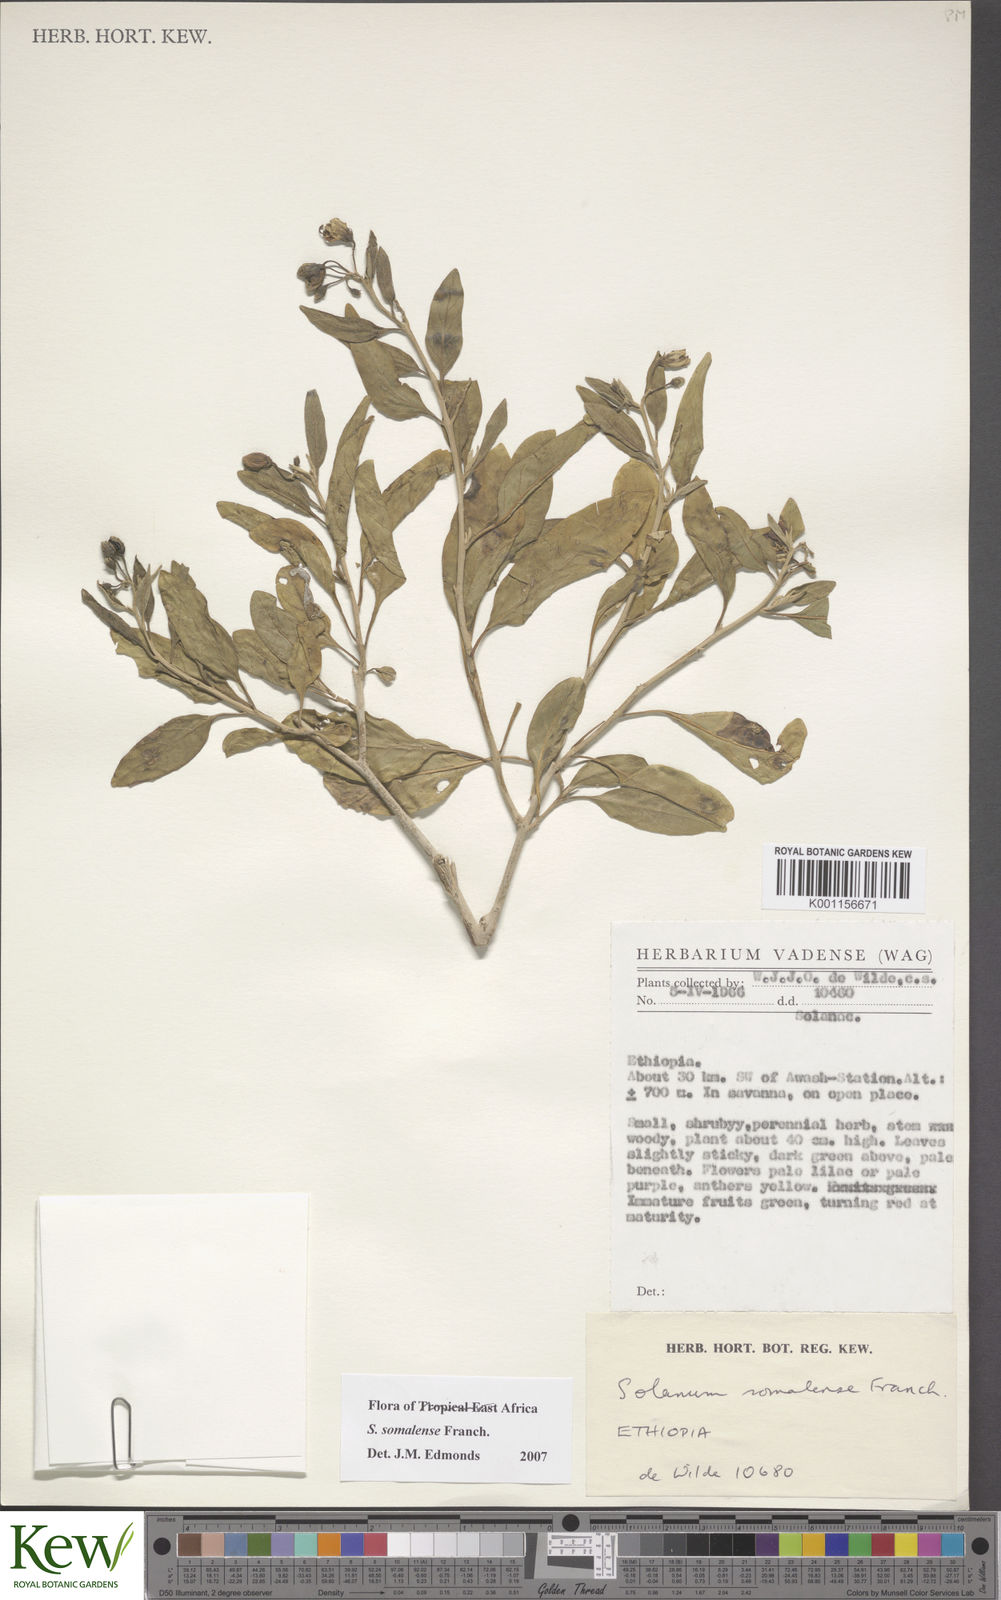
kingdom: Plantae
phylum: Tracheophyta
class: Magnoliopsida
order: Solanales
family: Solanaceae
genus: Solanum
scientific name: Solanum somalense
